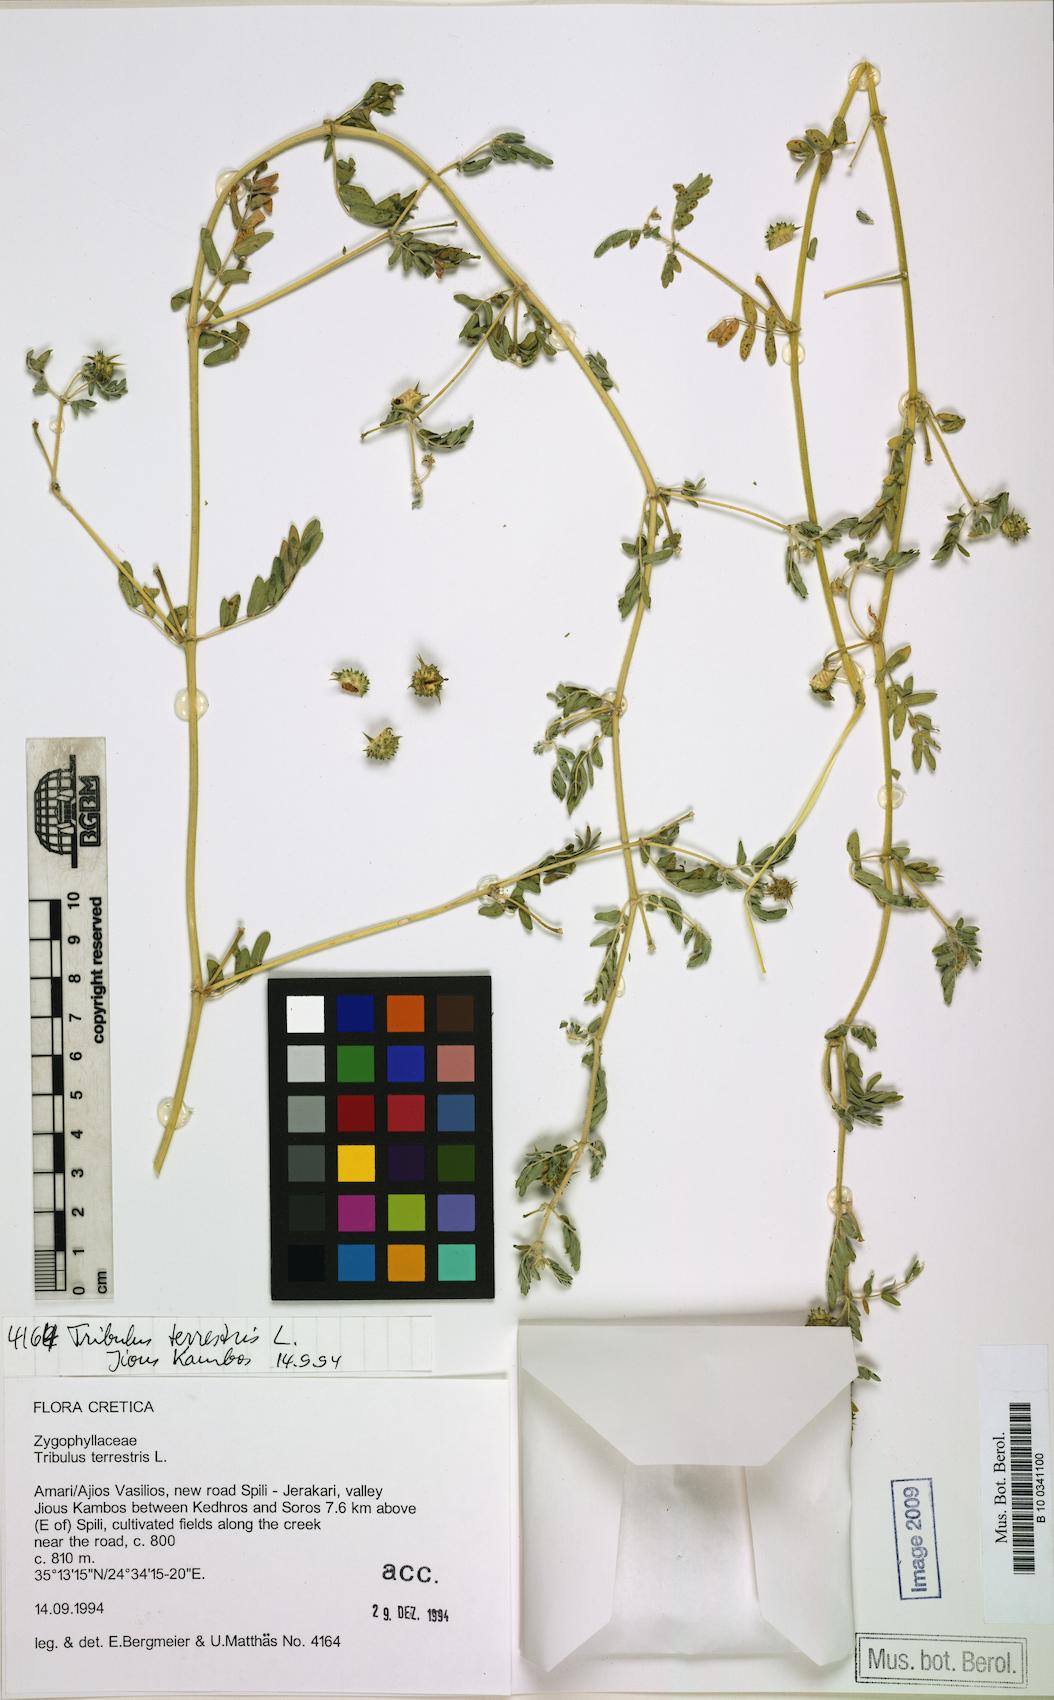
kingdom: Plantae
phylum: Tracheophyta
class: Magnoliopsida
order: Zygophyllales
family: Zygophyllaceae
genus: Tribulus
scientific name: Tribulus terrestris
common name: Puncturevine
